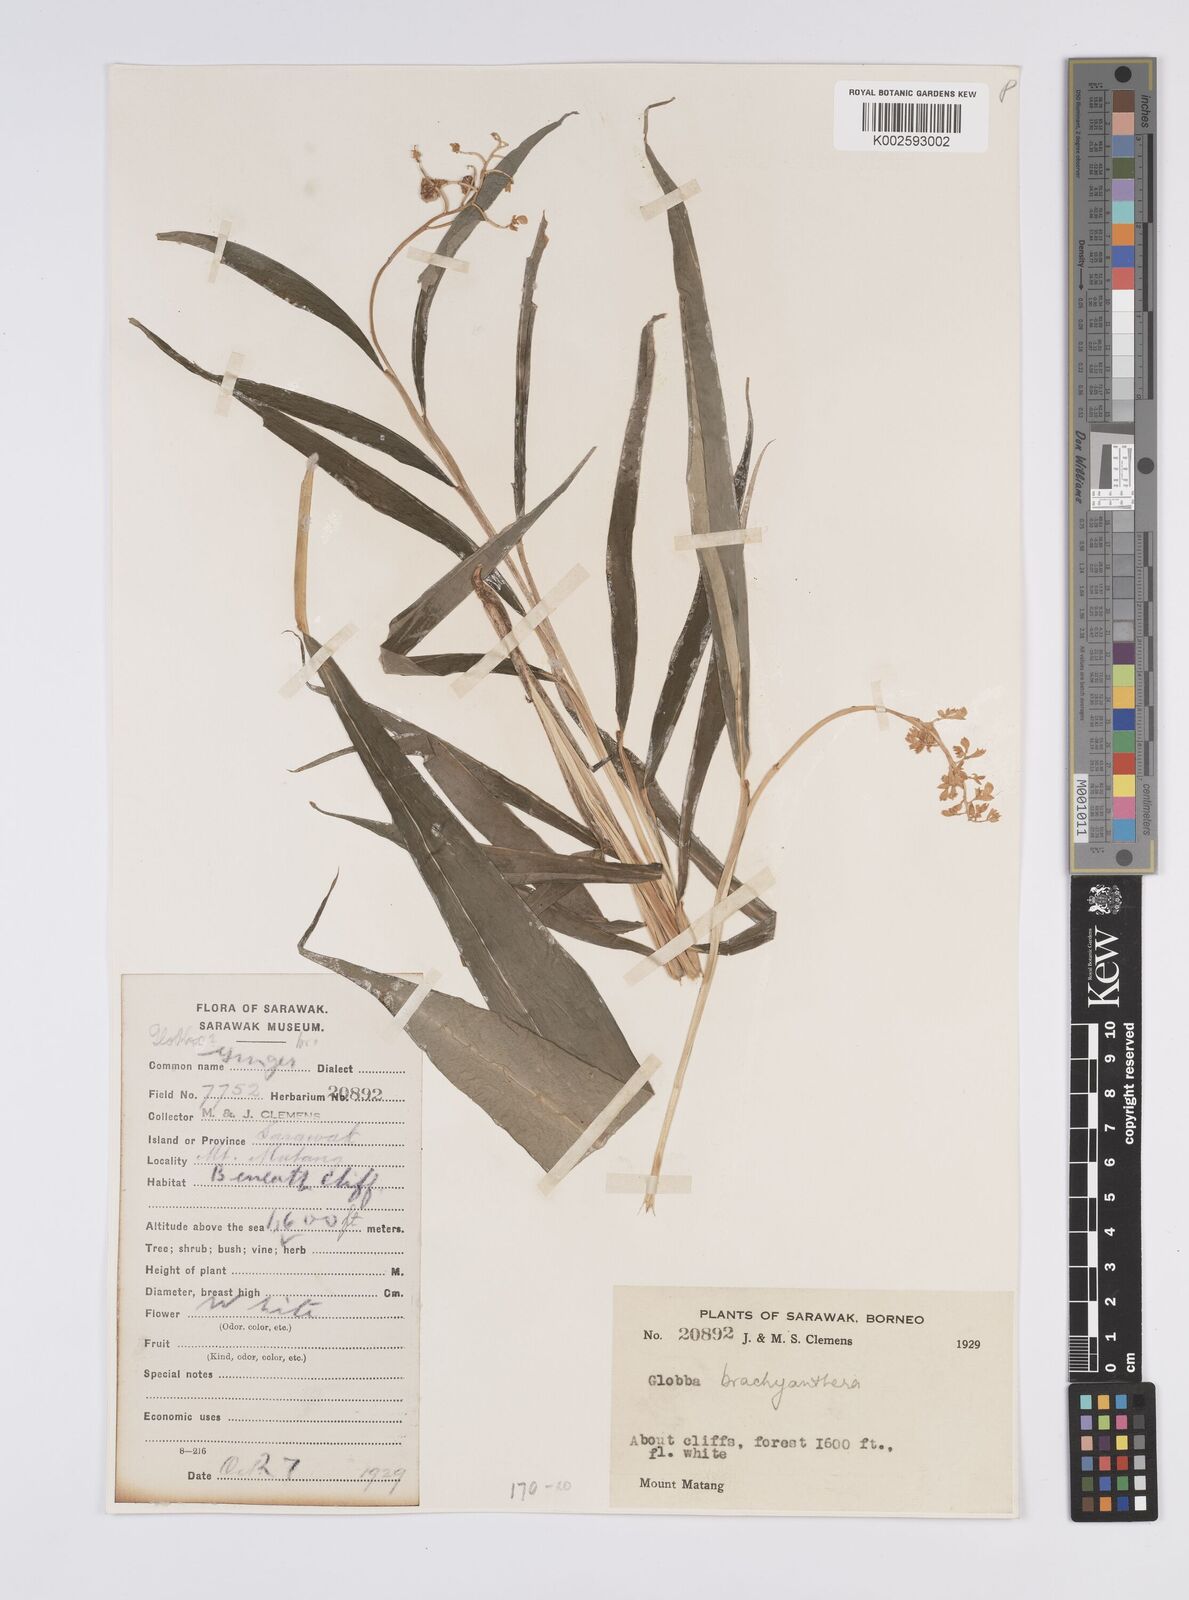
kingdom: Plantae
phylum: Tracheophyta
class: Liliopsida
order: Zingiberales
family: Zingiberaceae
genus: Globba
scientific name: Globba brachyanthera
